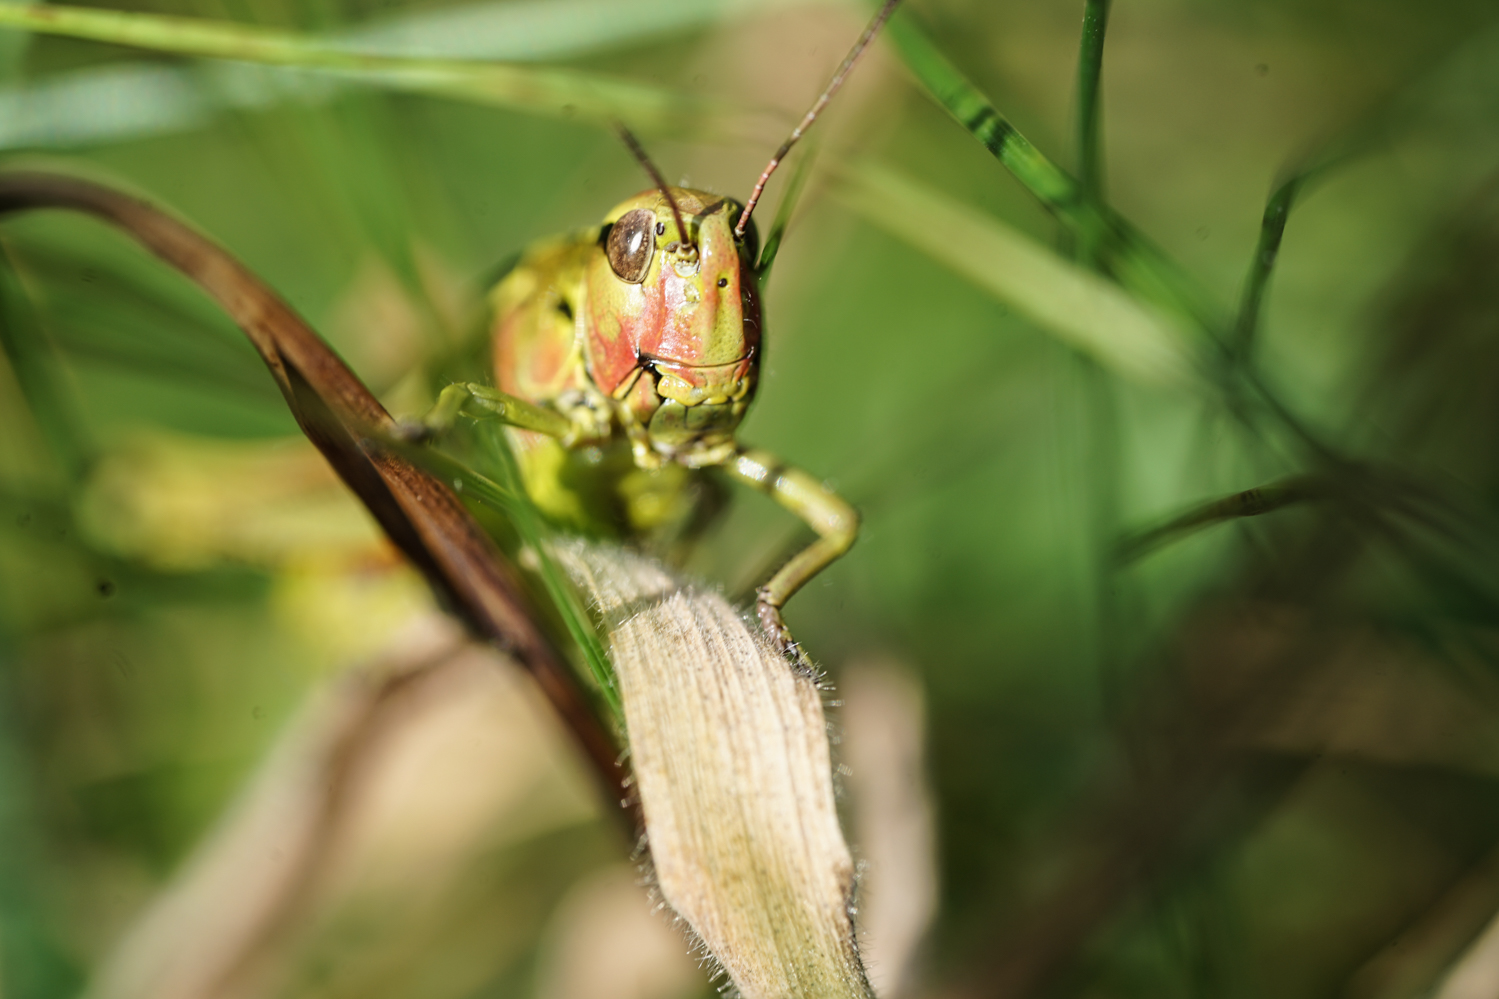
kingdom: Animalia
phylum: Arthropoda
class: Insecta
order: Orthoptera
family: Acrididae
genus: Stethophyma
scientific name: Stethophyma grossum
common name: Large marsh grasshopper
